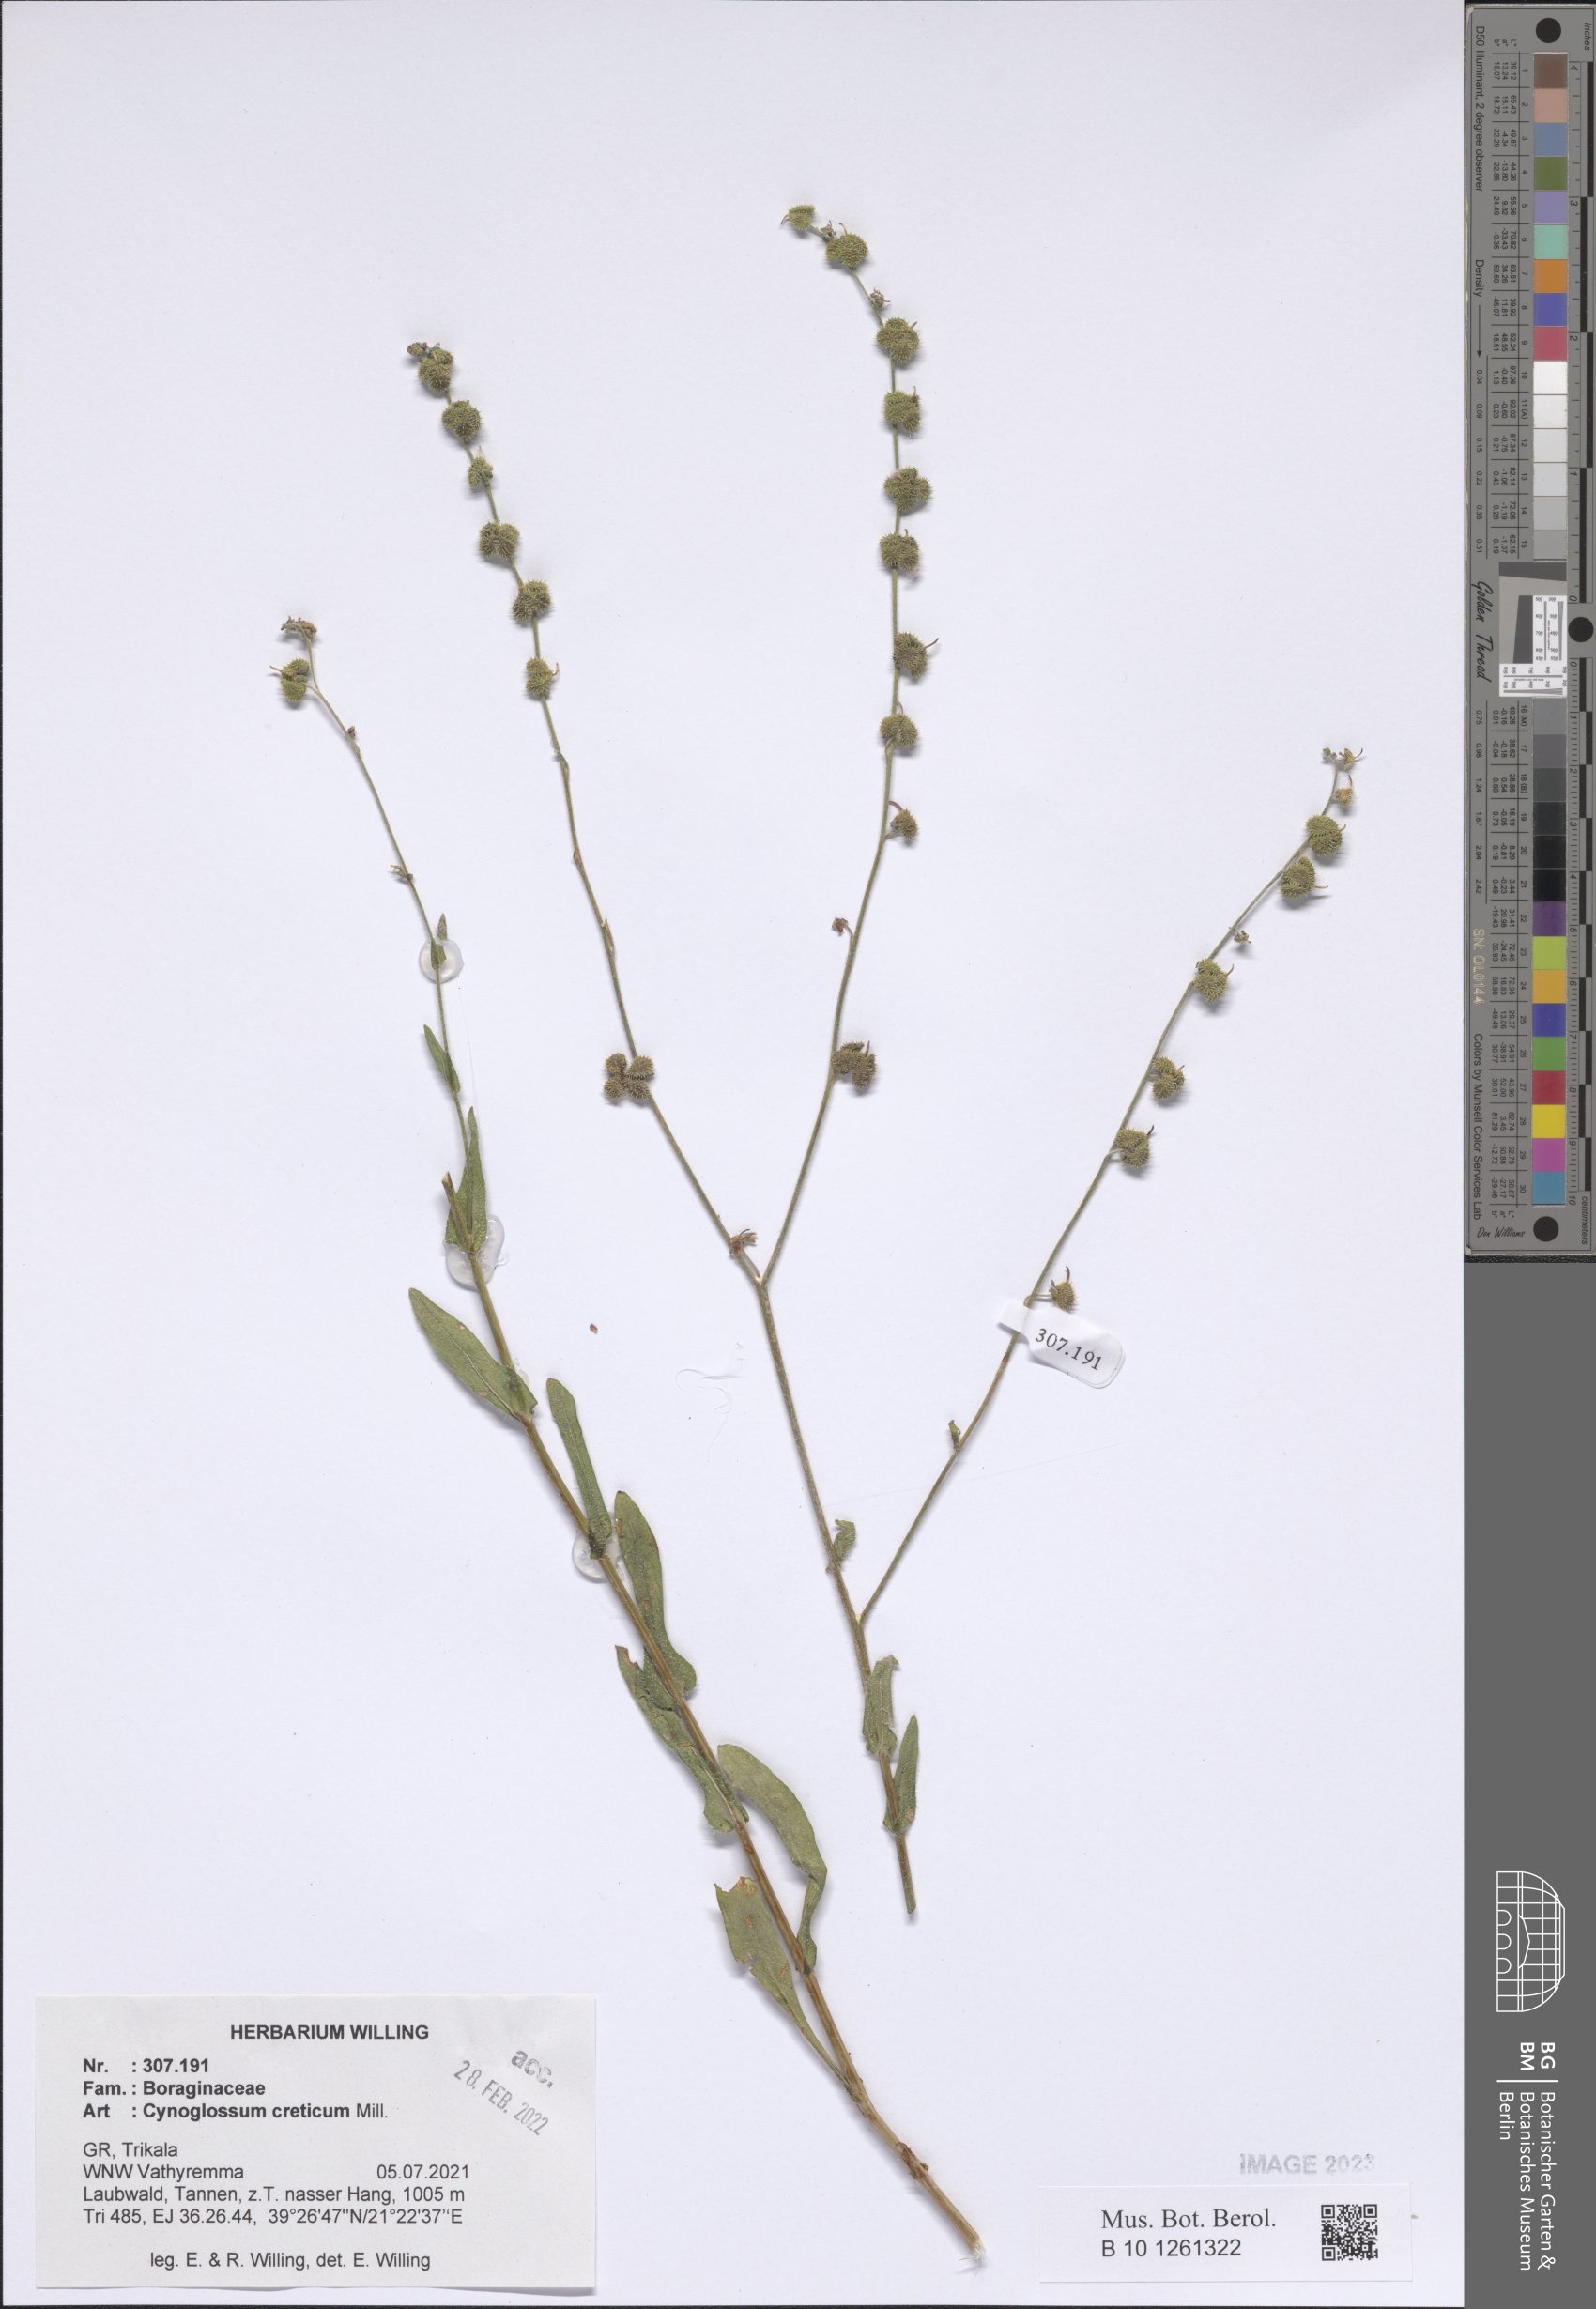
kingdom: Plantae
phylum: Tracheophyta
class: Magnoliopsida
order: Boraginales
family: Boraginaceae
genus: Cynoglossum
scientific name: Cynoglossum creticum
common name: Blue hound's tongue
